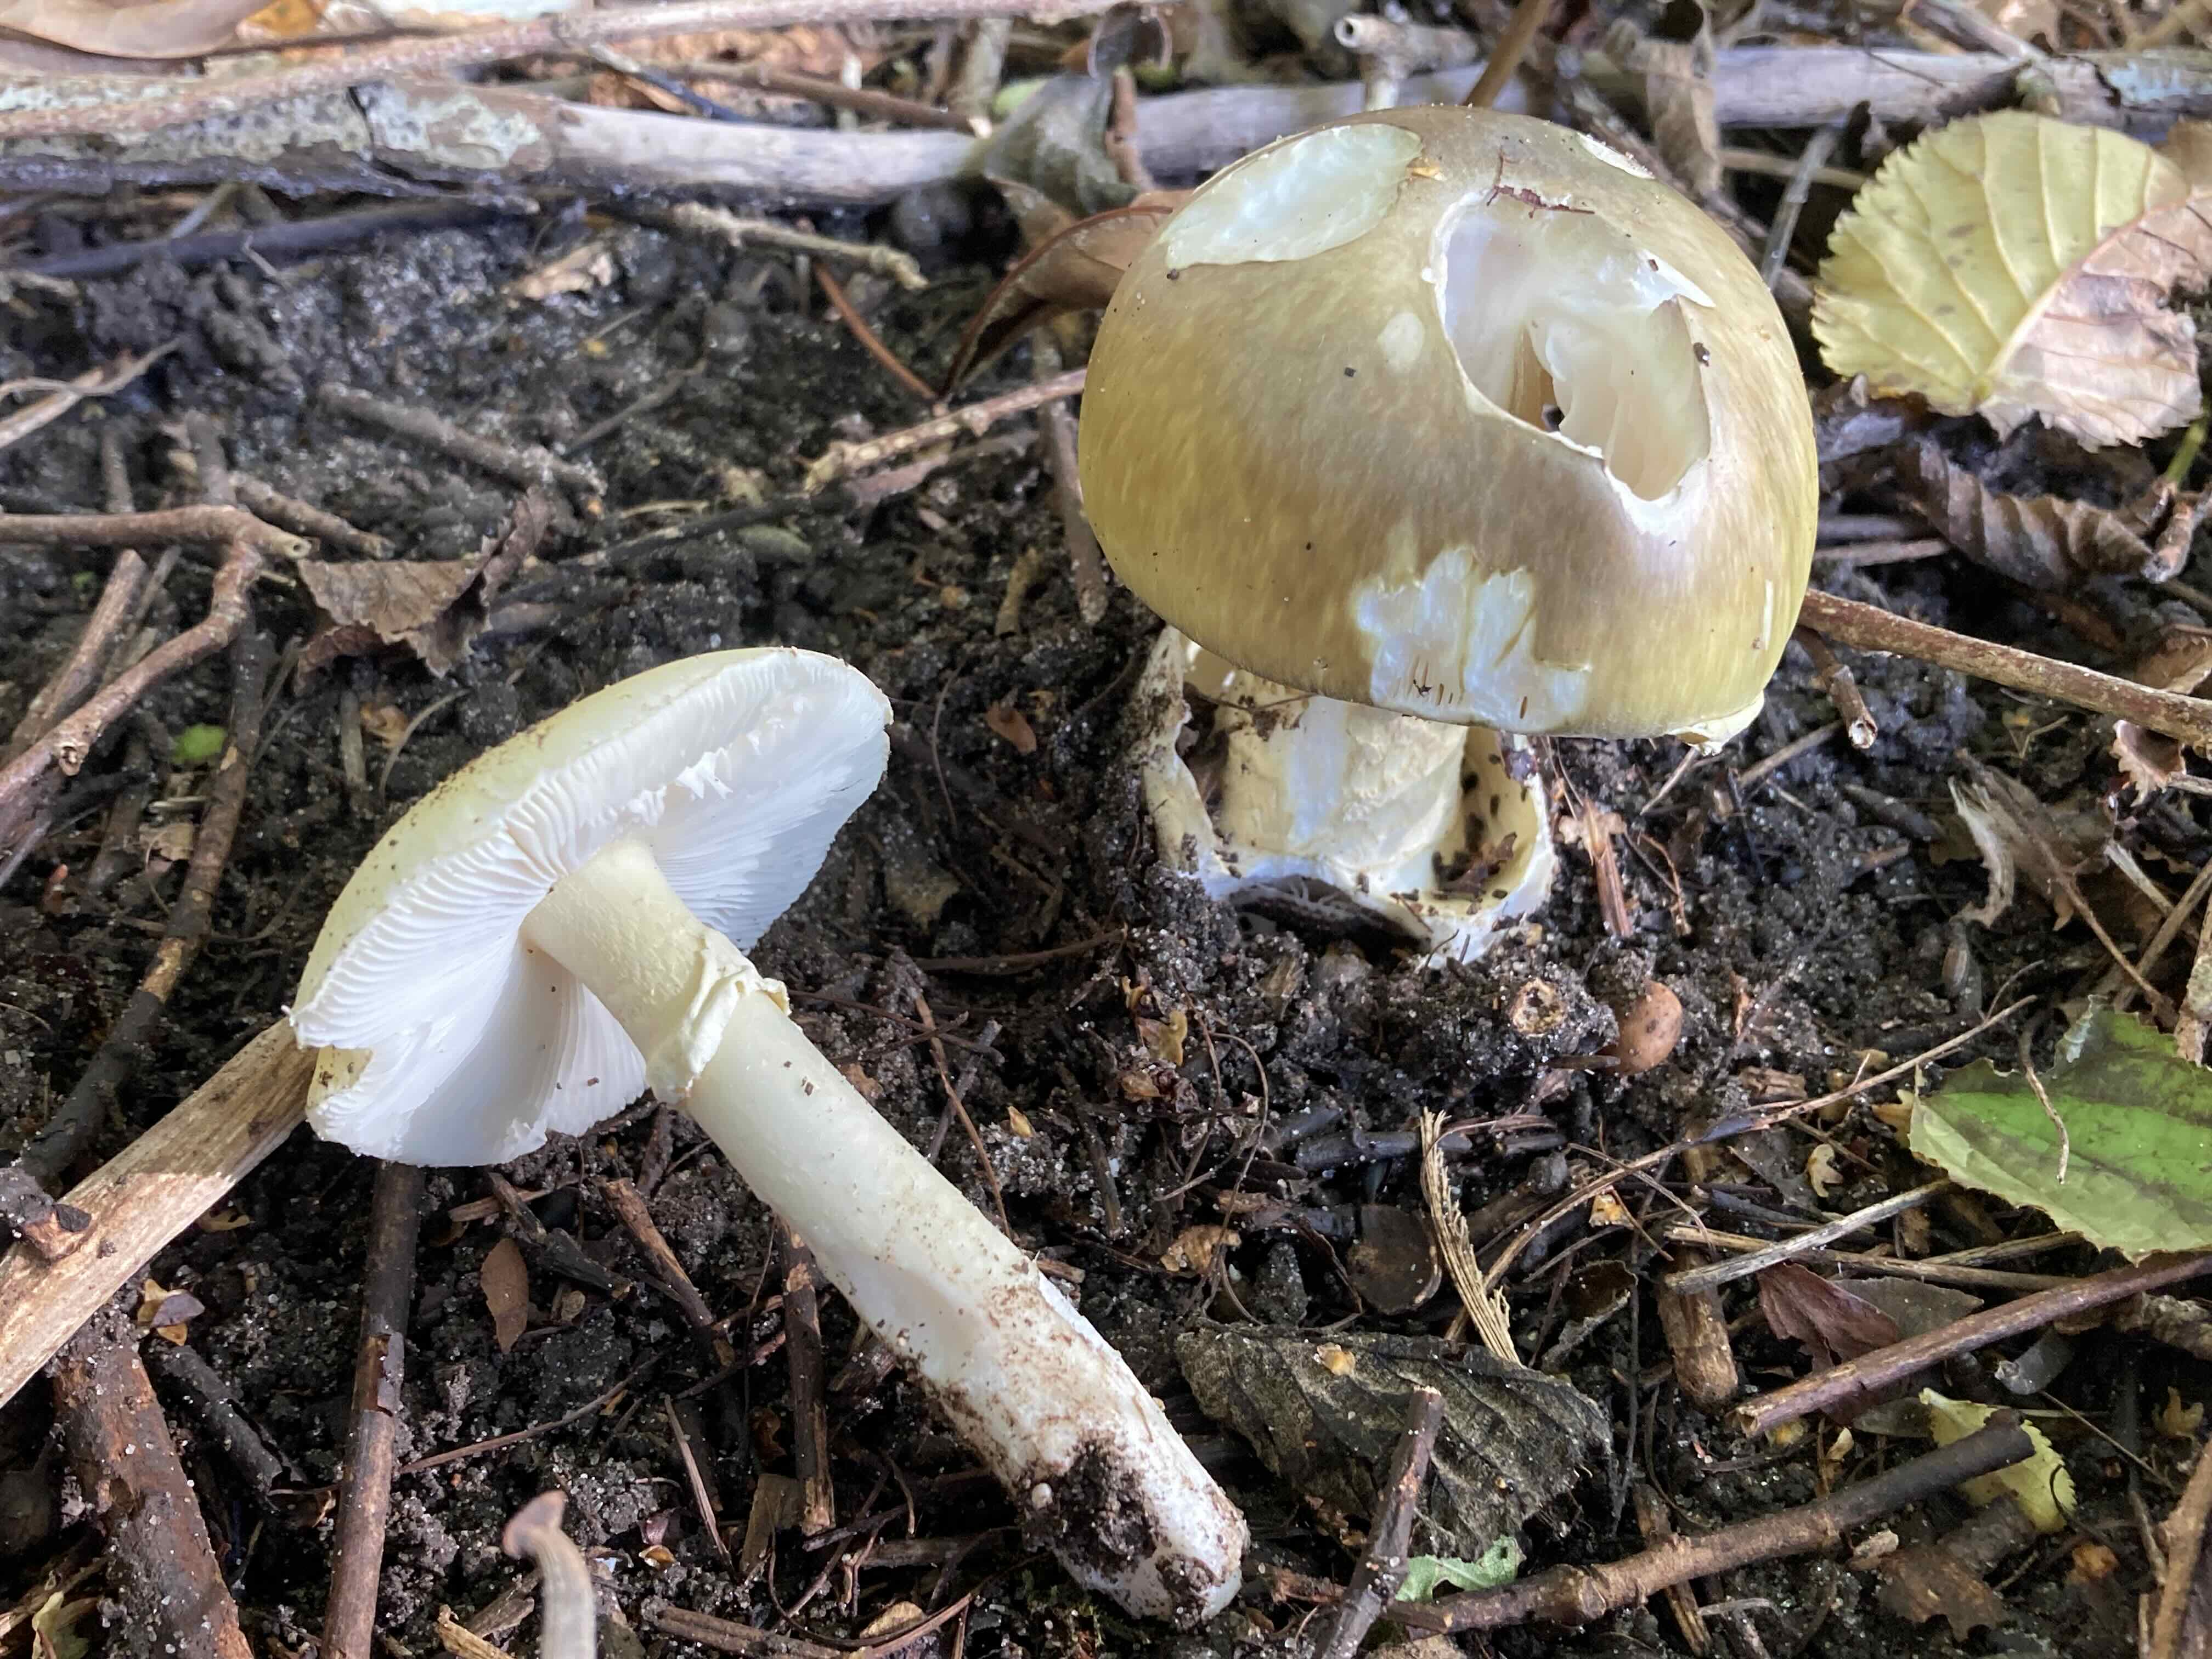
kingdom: Fungi
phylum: Basidiomycota
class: Agaricomycetes
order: Agaricales
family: Amanitaceae
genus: Amanita
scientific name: Amanita phalloides
